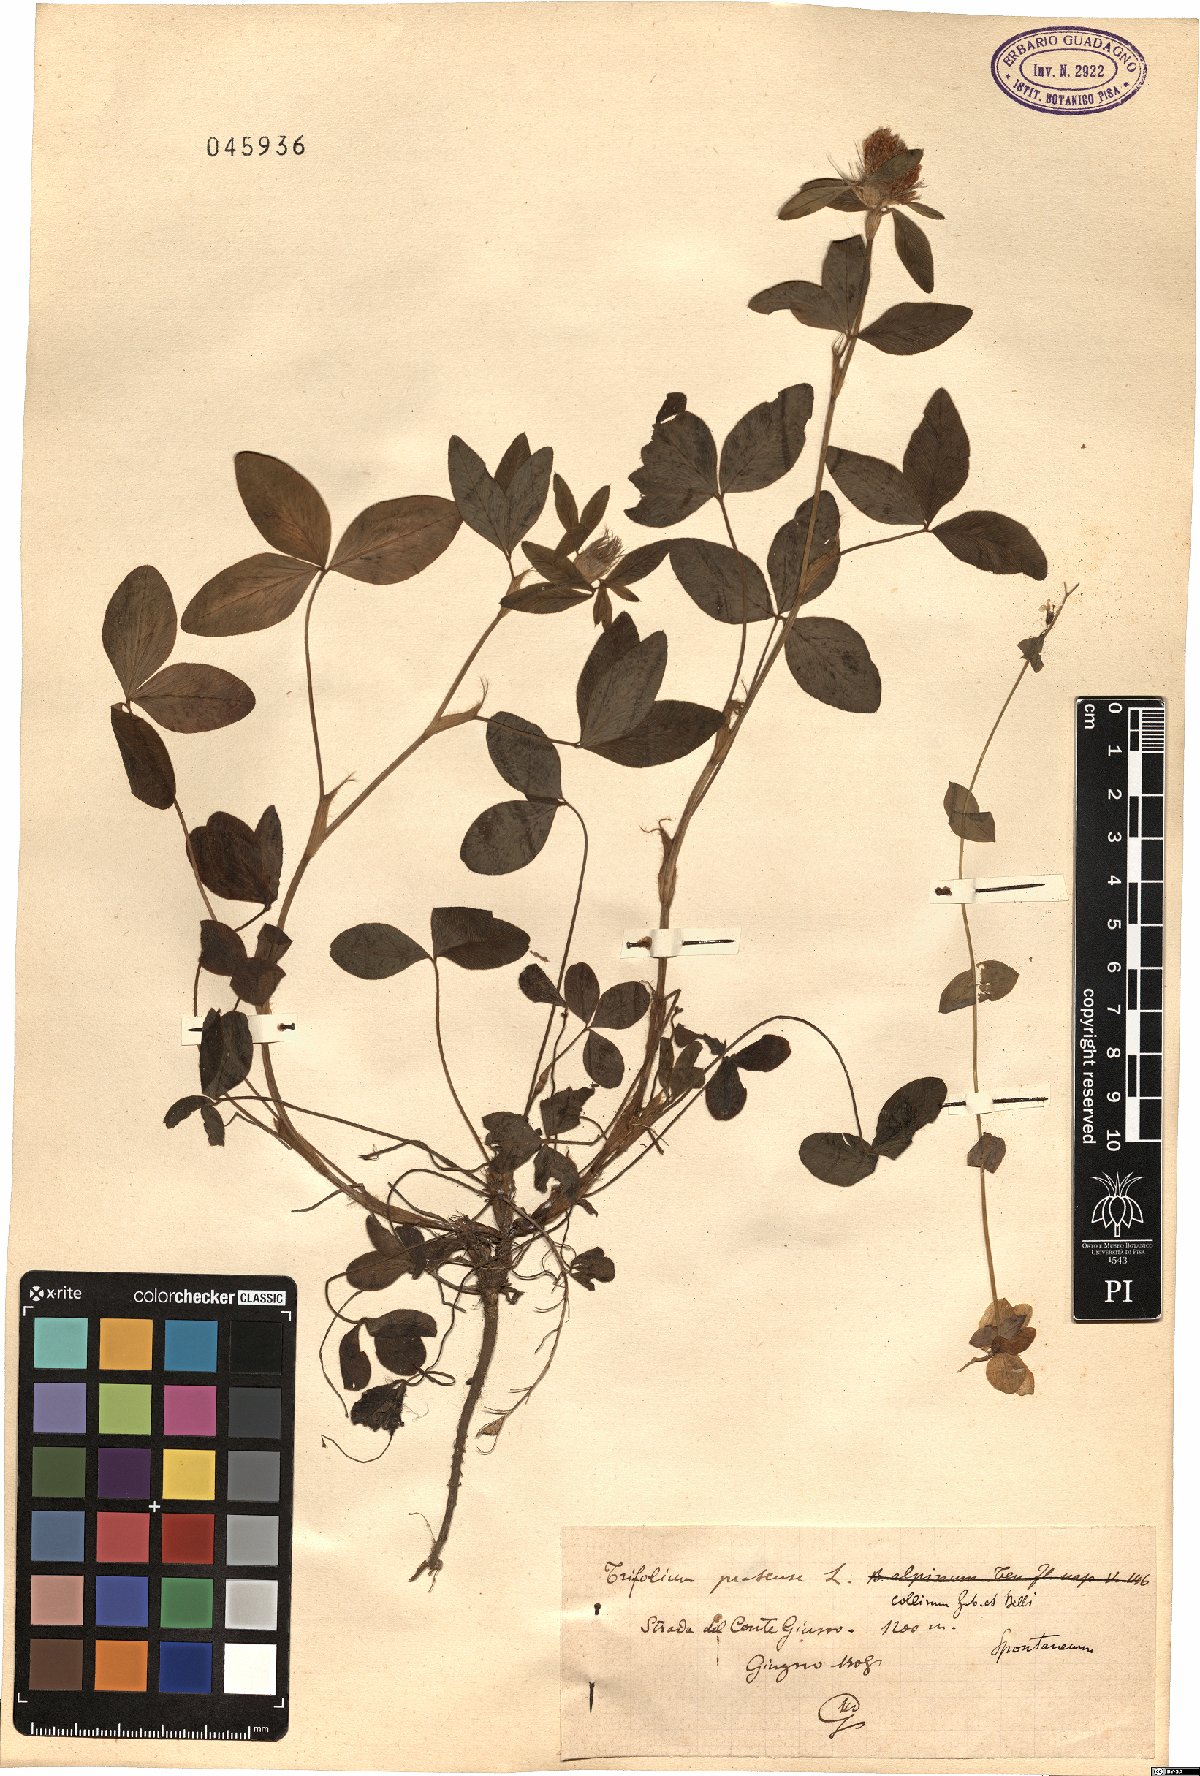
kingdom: Plantae
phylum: Tracheophyta
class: Magnoliopsida
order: Fabales
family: Fabaceae
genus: Trifolium
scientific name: Trifolium pratense
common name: Red clover
